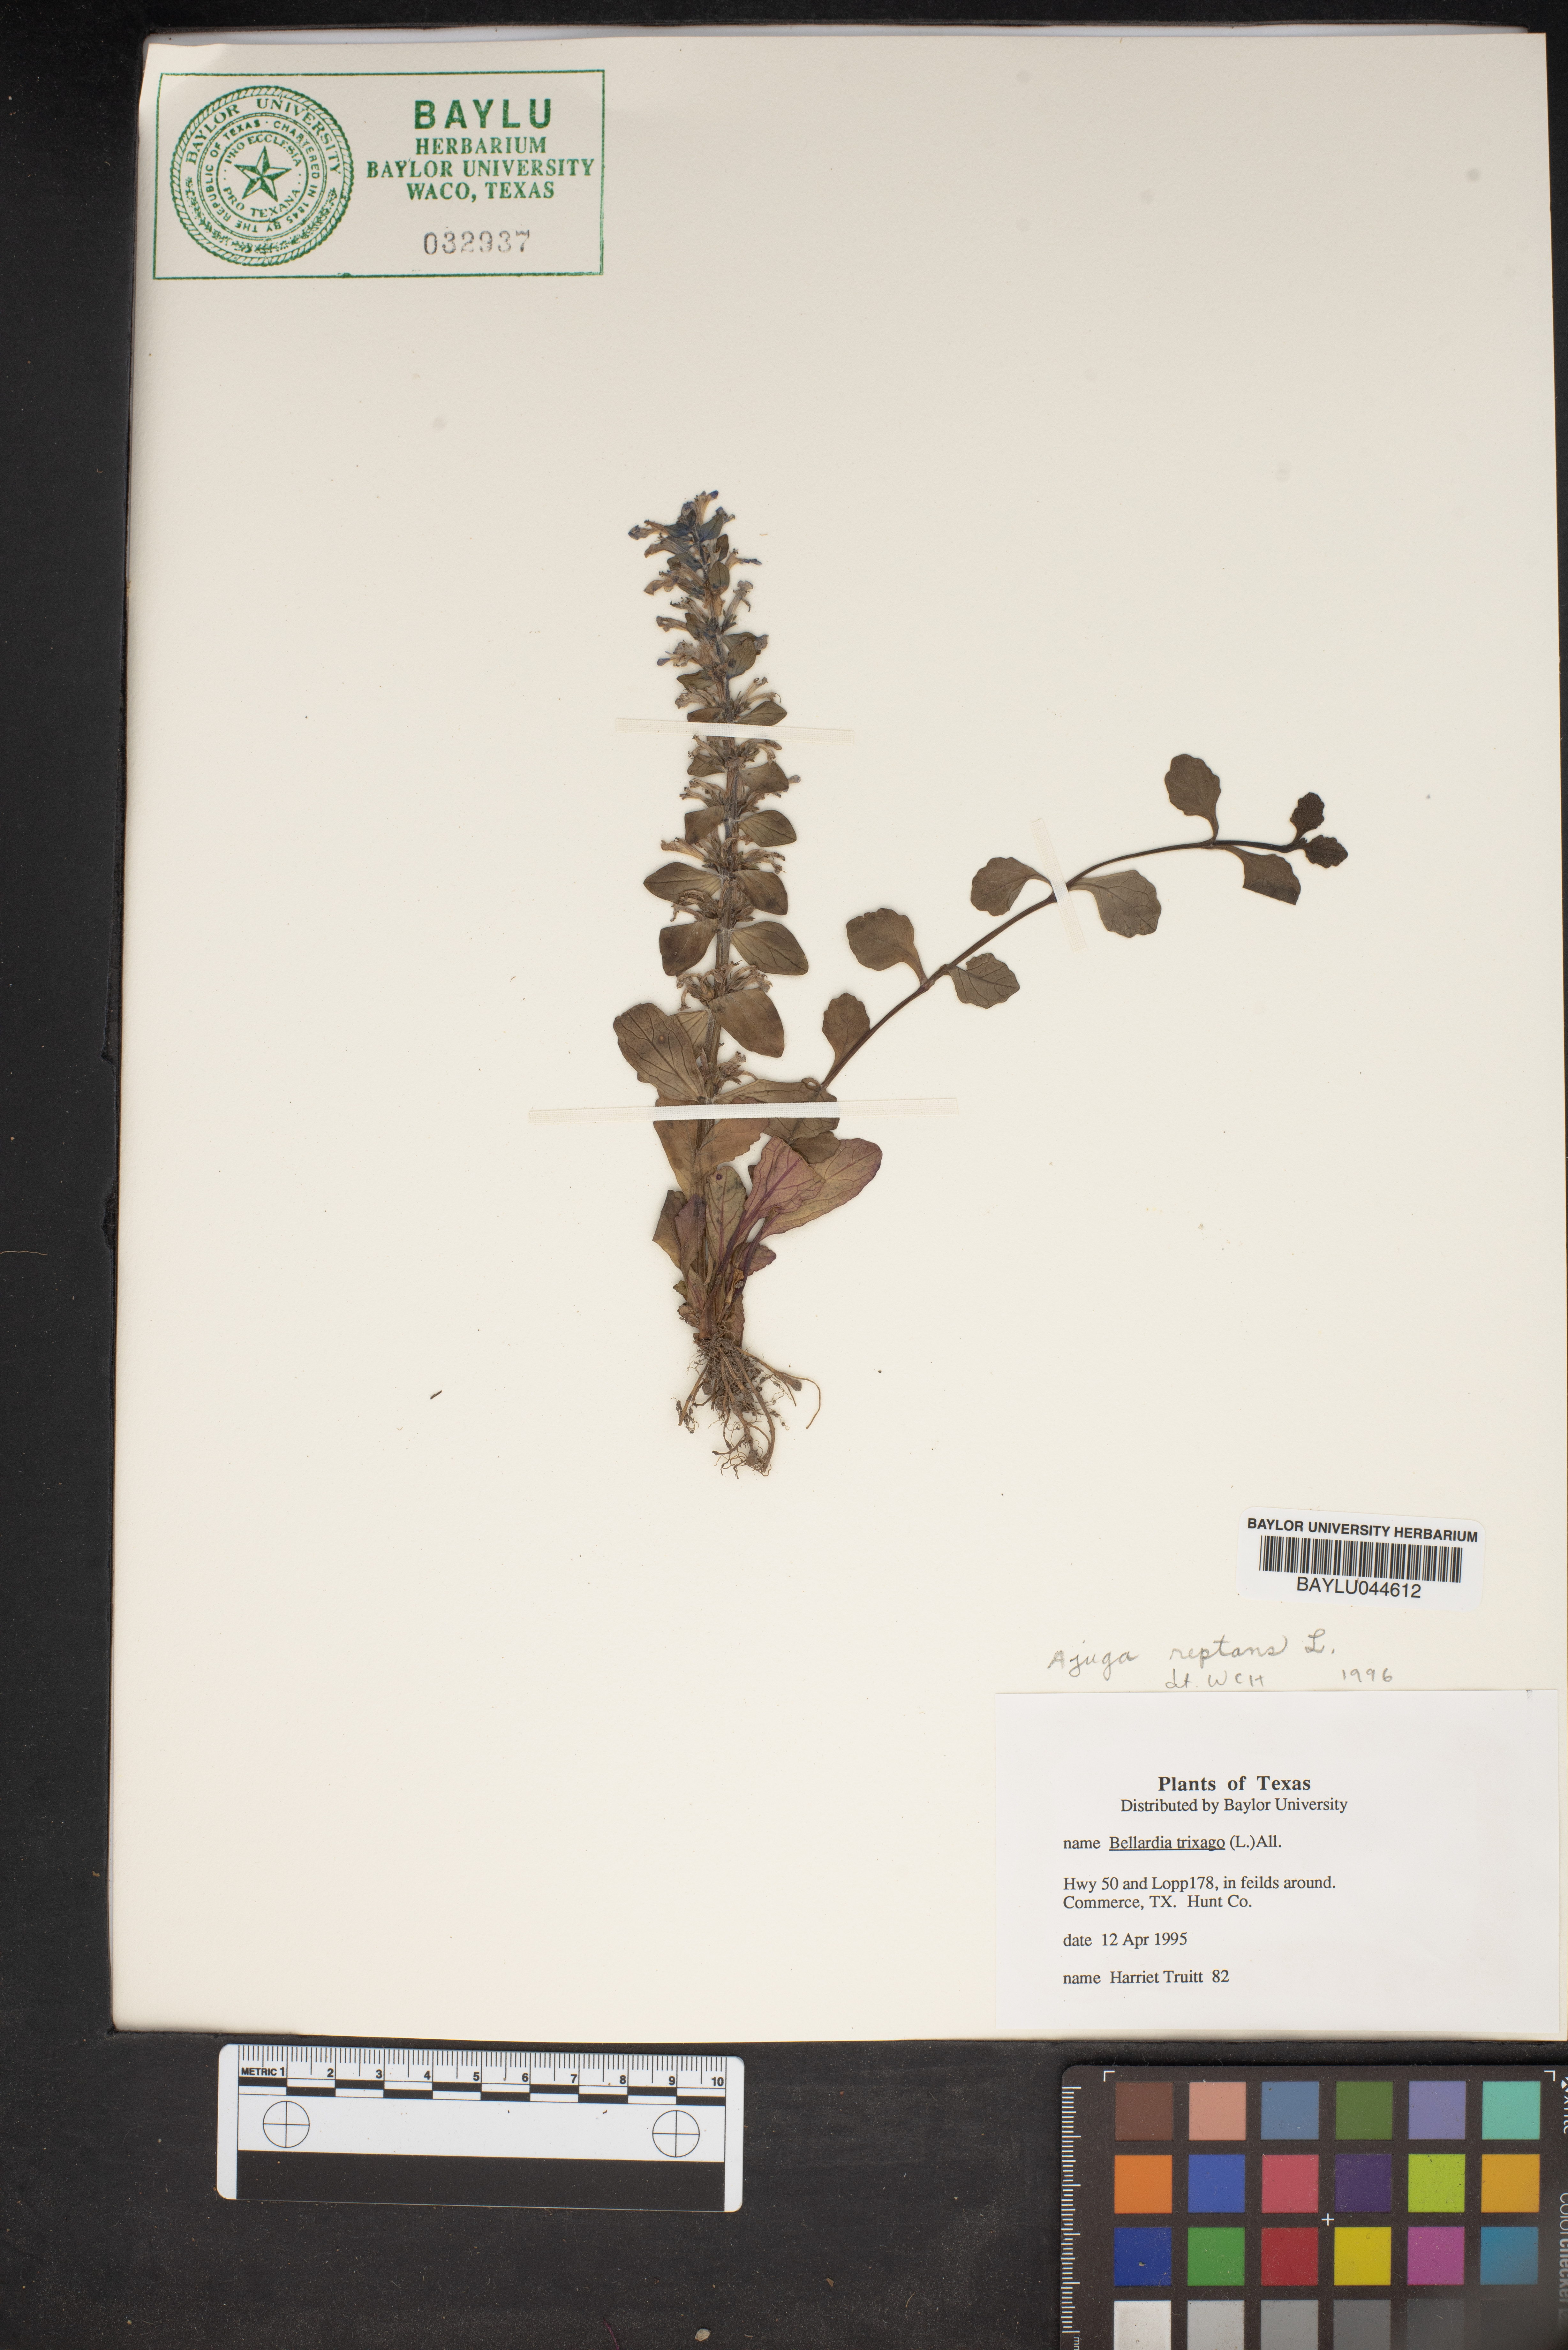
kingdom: Plantae
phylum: Tracheophyta
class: Magnoliopsida
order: Lamiales
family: Orobanchaceae
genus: Bellardia
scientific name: Bellardia trixago
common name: Mediterranean lineseed
